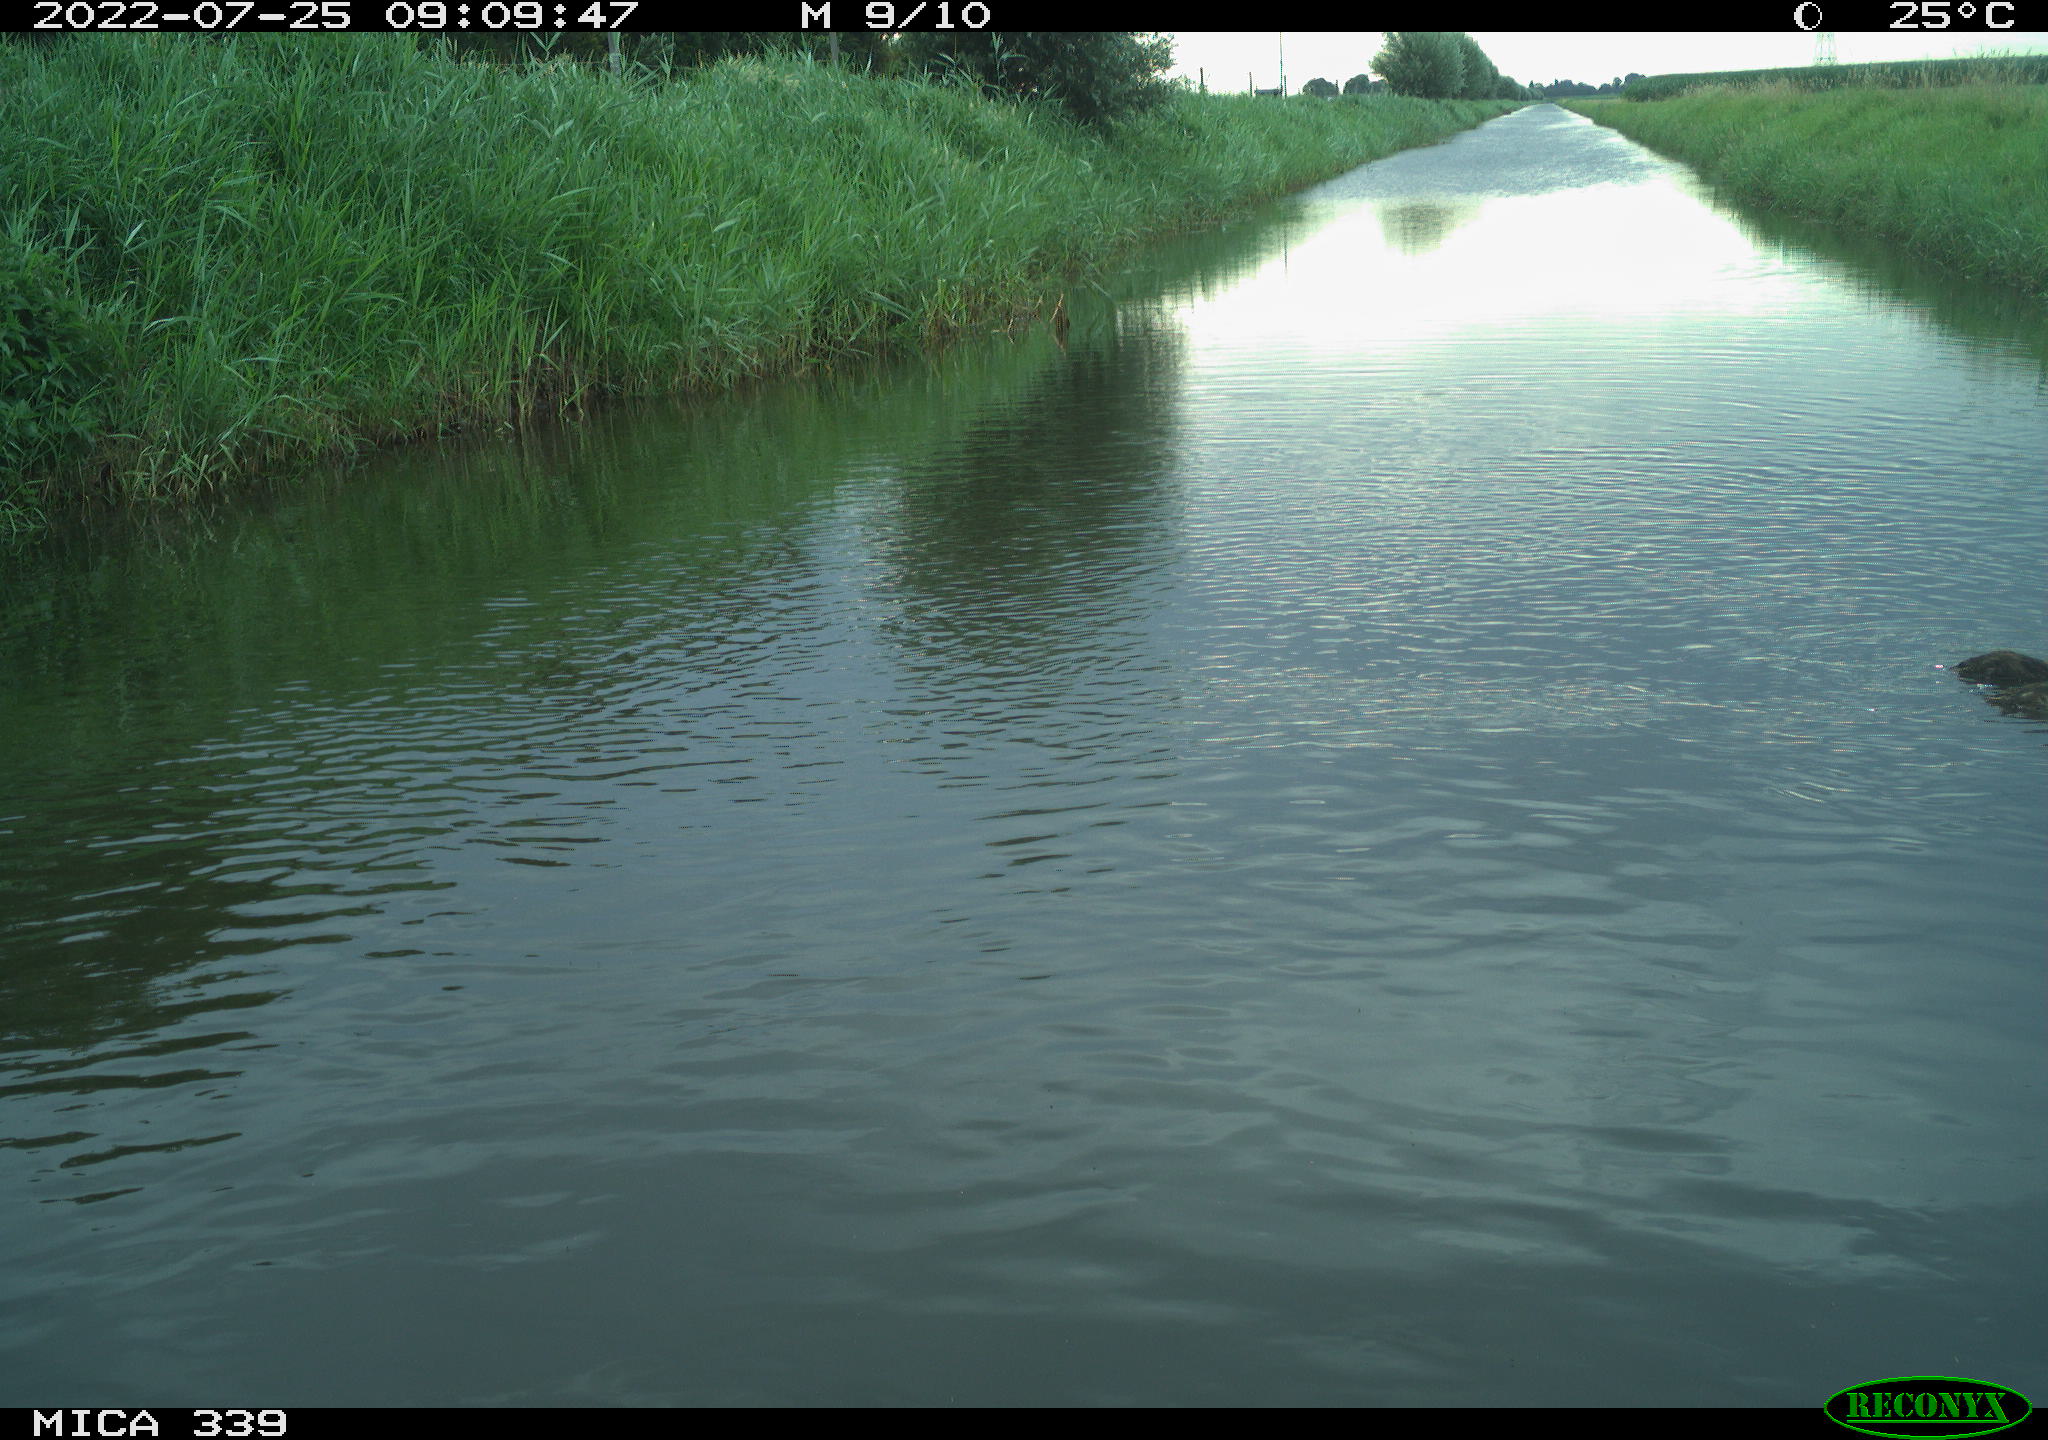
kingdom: Animalia
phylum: Chordata
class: Aves
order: Anseriformes
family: Anatidae
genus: Anas
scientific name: Anas platyrhynchos
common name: Mallard
